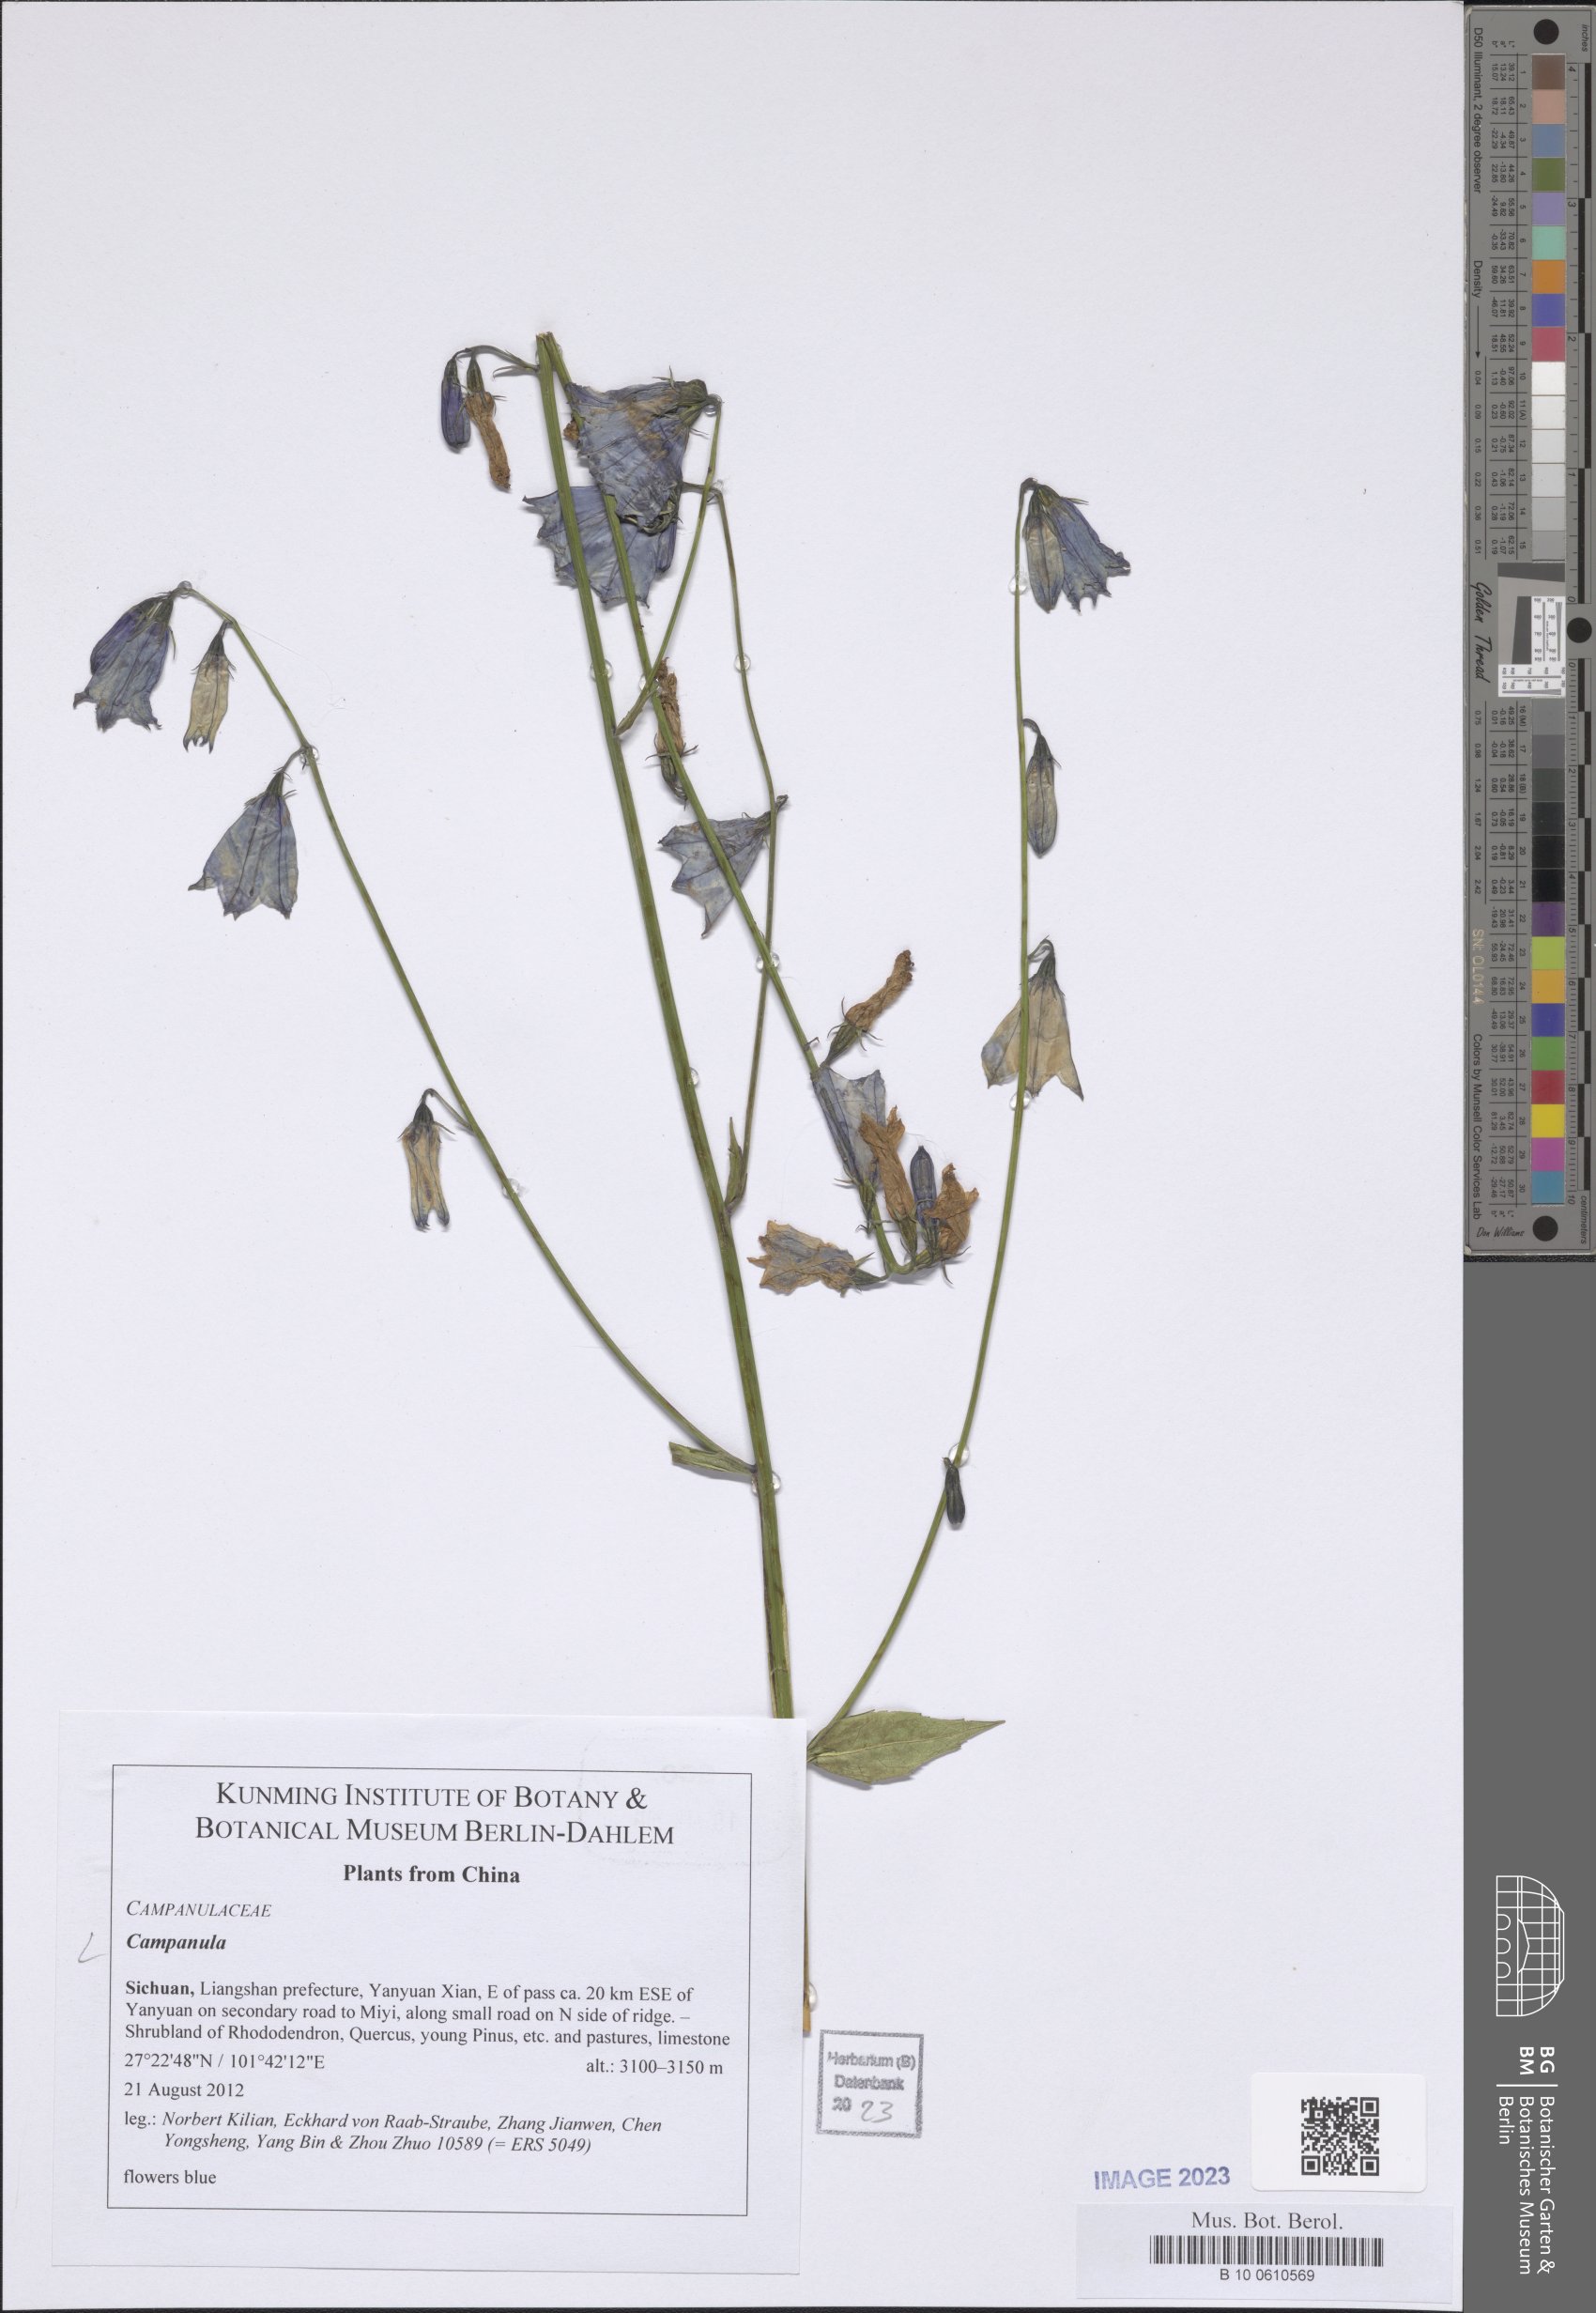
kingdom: Plantae
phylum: Tracheophyta
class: Magnoliopsida
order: Asterales
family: Campanulaceae
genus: Campanula
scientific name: Campanula
